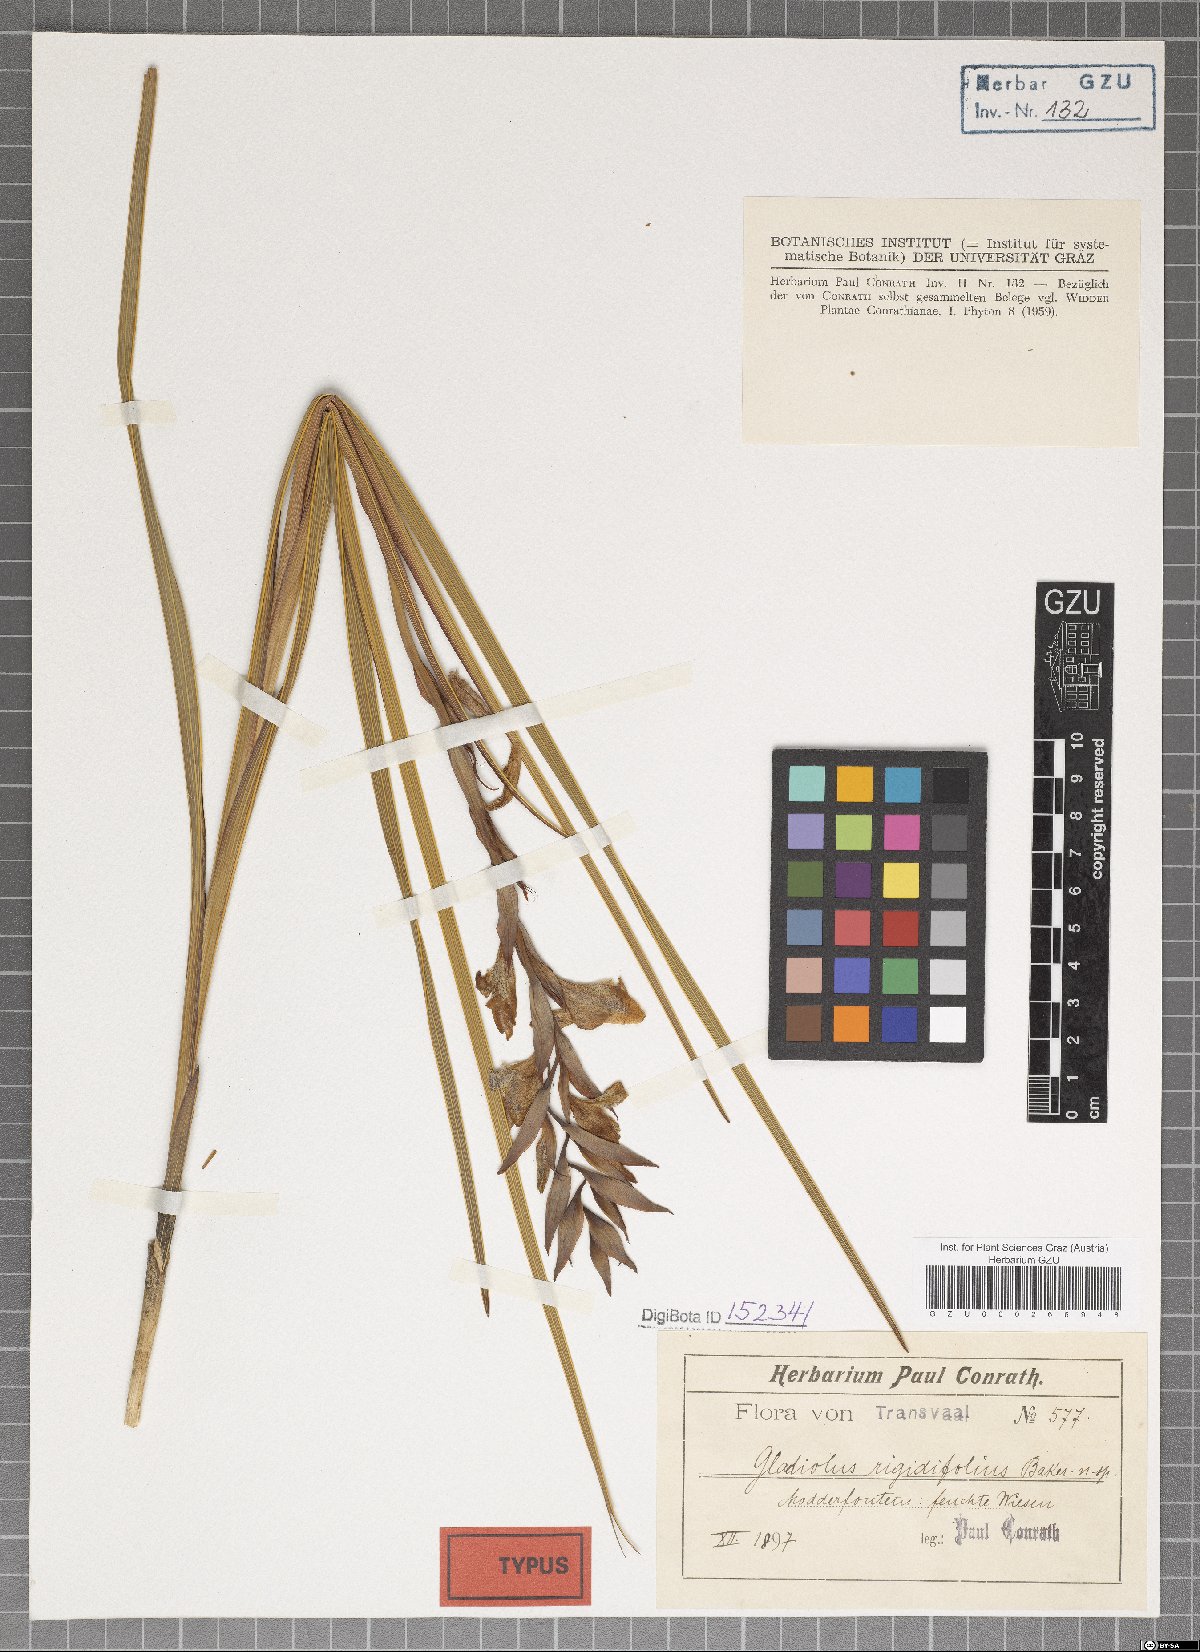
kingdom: Plantae
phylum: Tracheophyta
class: Liliopsida
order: Asparagales
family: Iridaceae
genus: Gladiolus
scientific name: Gladiolus sericeovillosus
